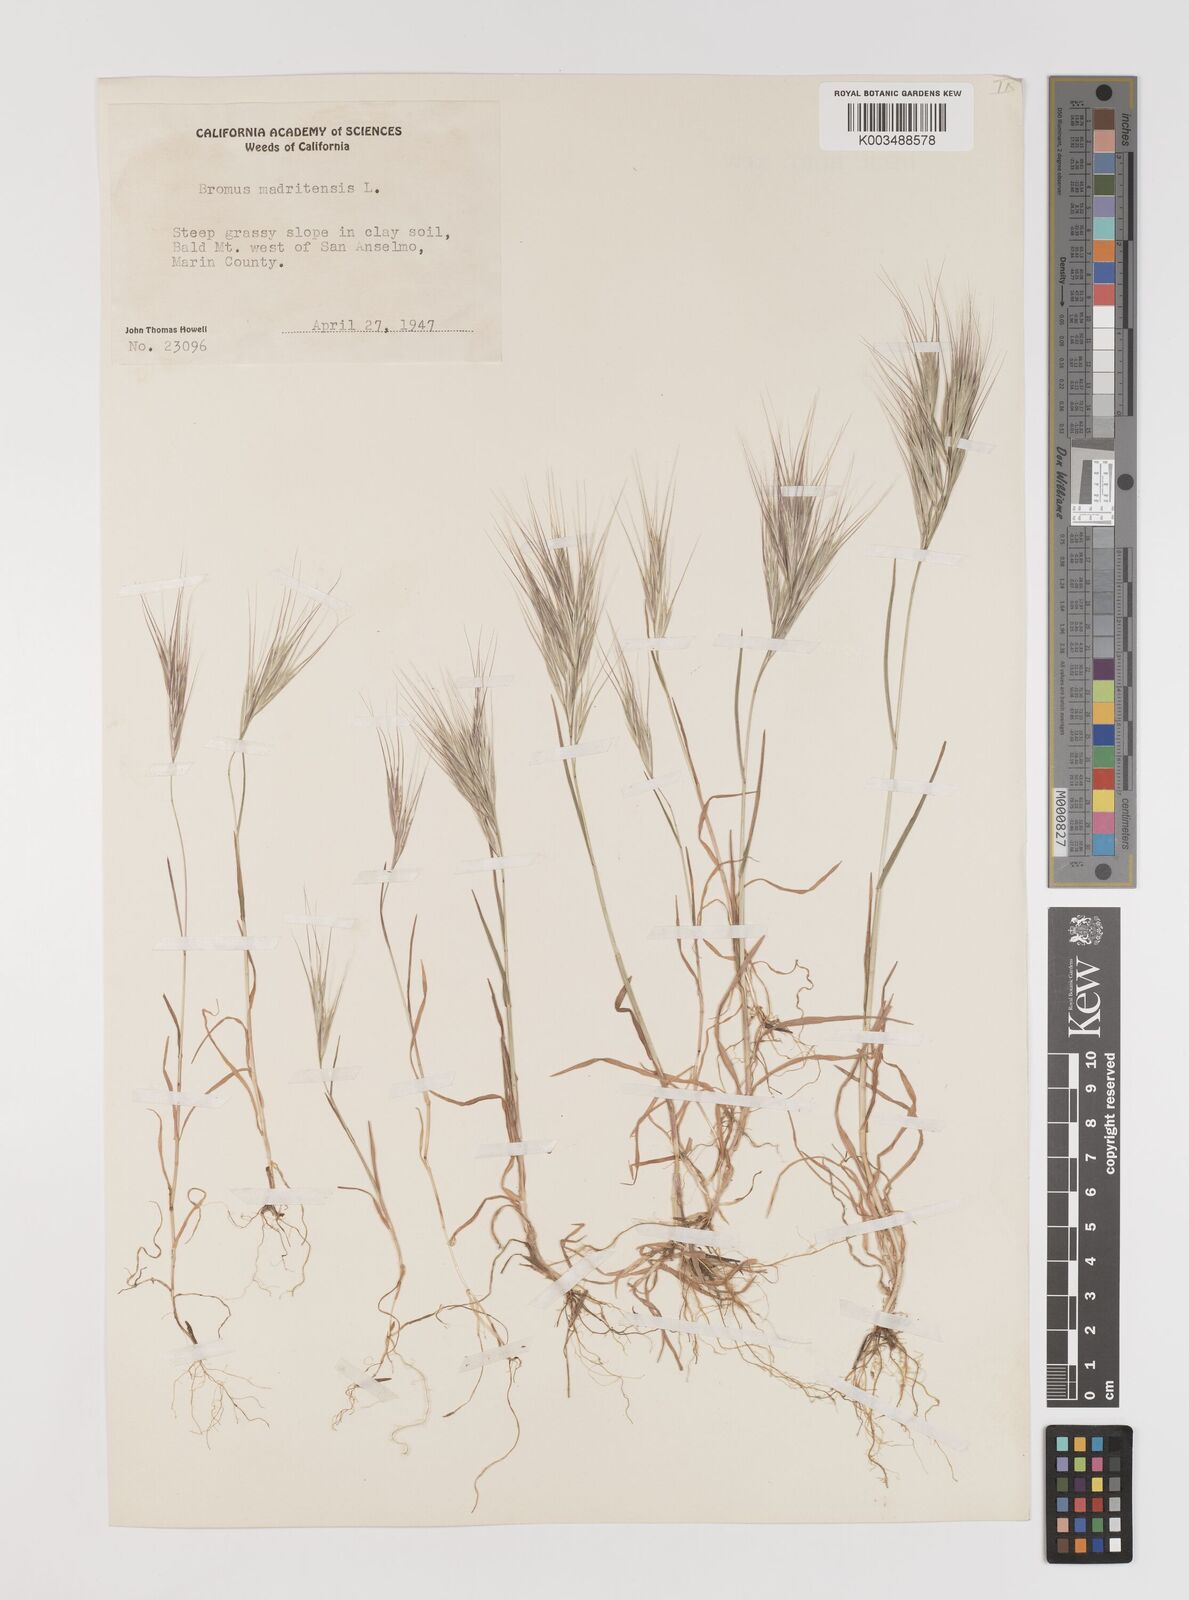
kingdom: Plantae
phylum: Tracheophyta
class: Liliopsida
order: Poales
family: Poaceae
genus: Bromus
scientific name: Bromus madritensis
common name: Compact brome
